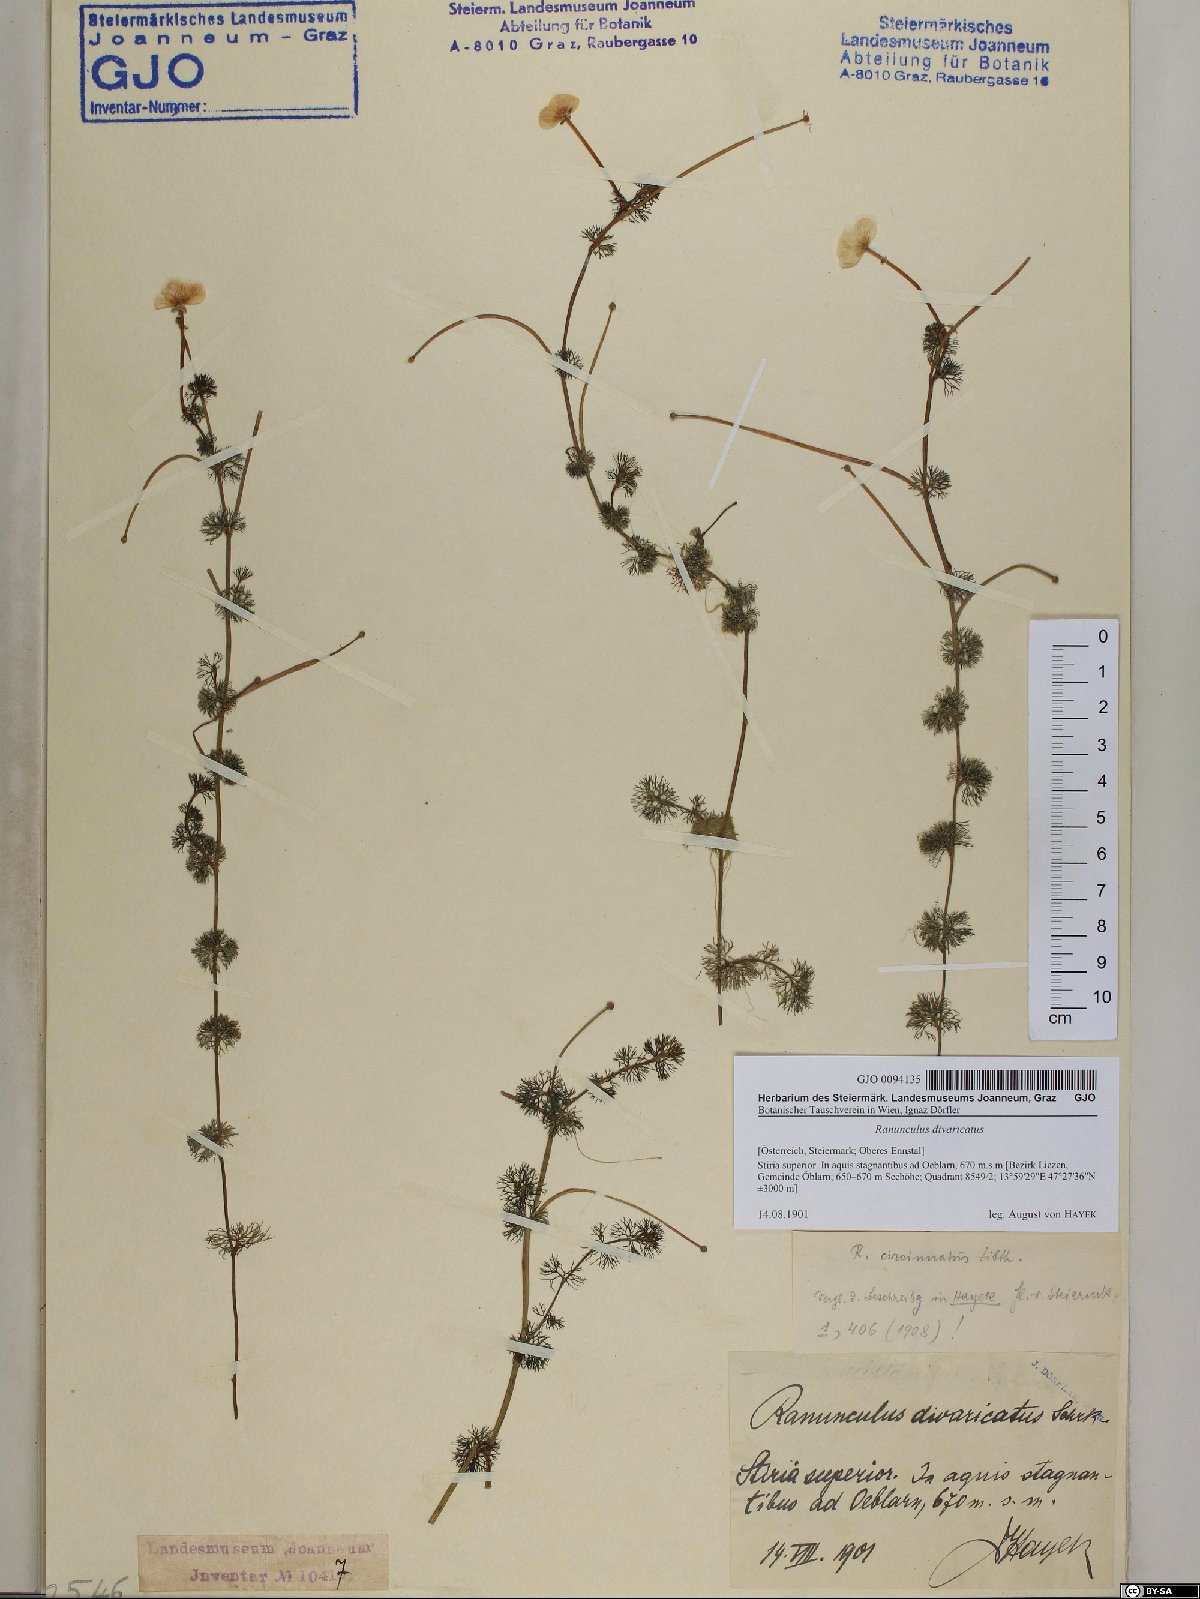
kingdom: Plantae
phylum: Tracheophyta
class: Magnoliopsida
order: Ranunculales
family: Ranunculaceae
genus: Ranunculus
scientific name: Ranunculus circinatus
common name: Fan-leaved water-crowfoot
